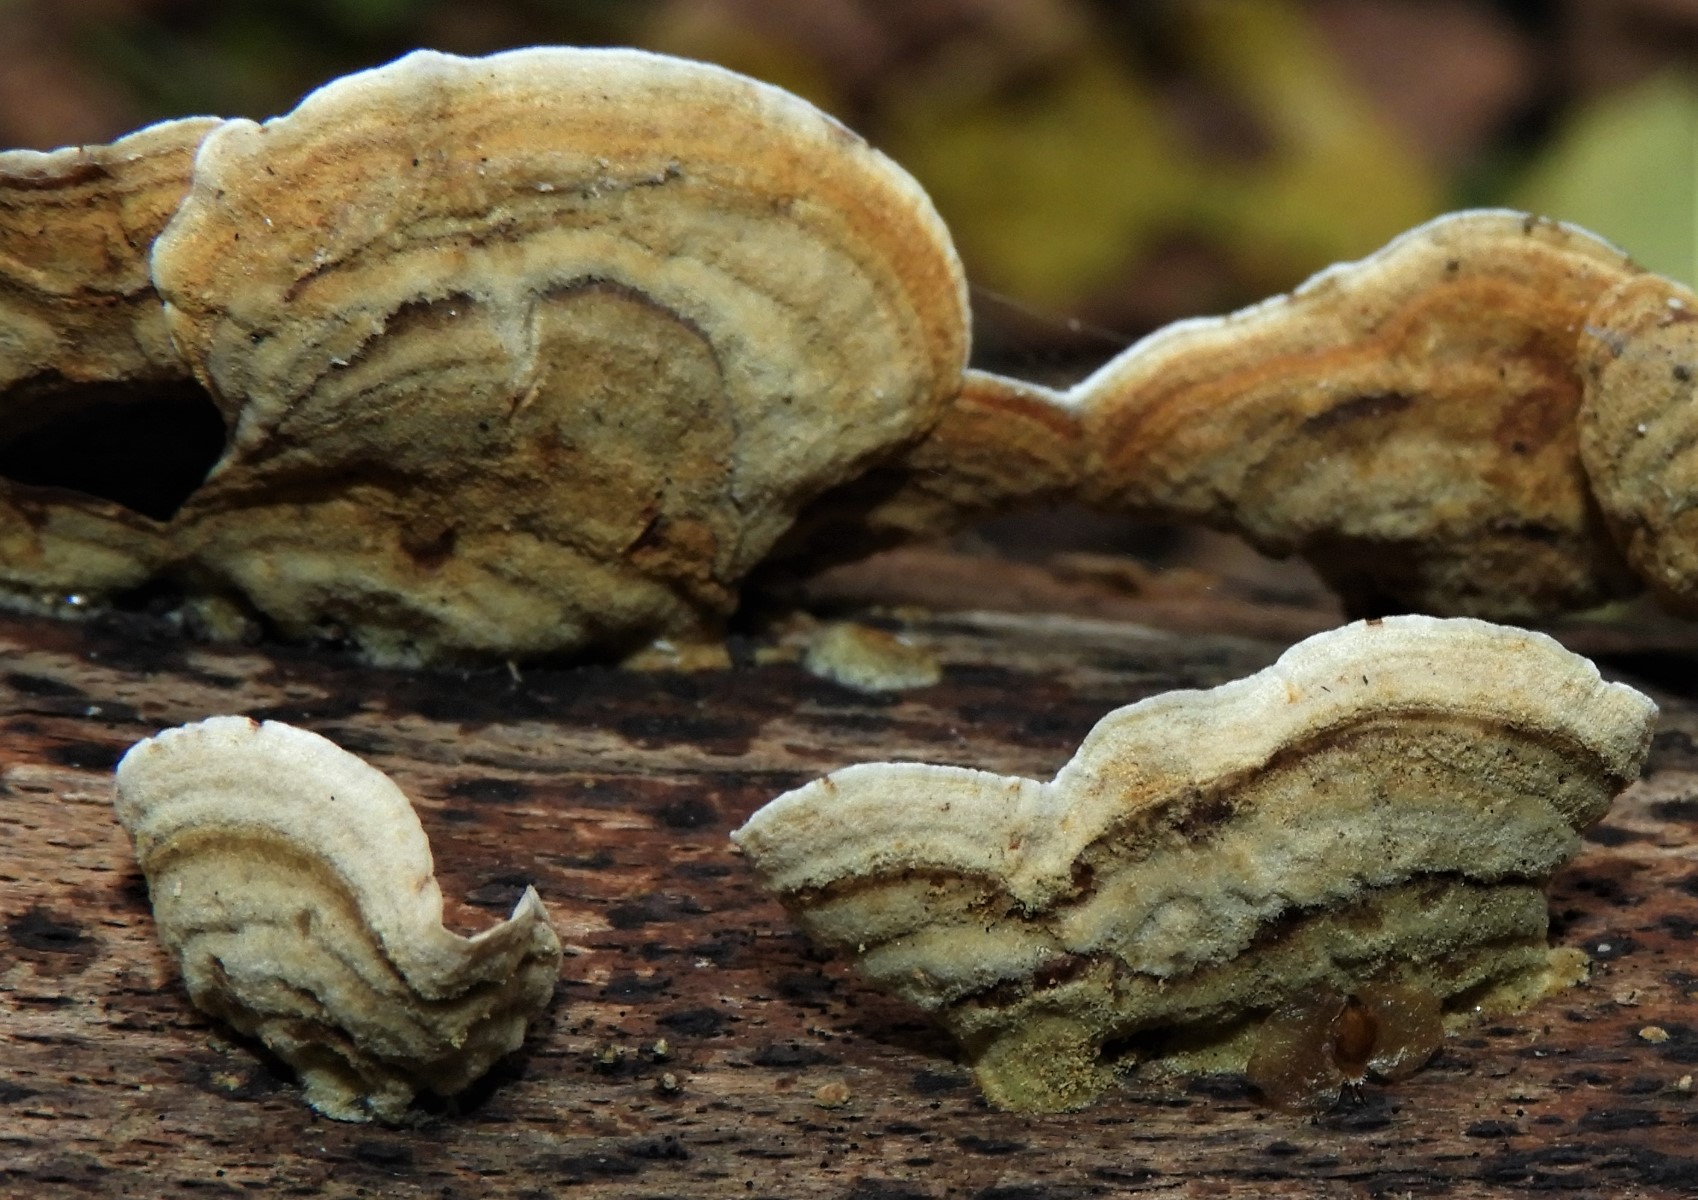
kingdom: Fungi
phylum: Basidiomycota
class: Agaricomycetes
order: Russulales
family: Stereaceae
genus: Stereum
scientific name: Stereum subtomentosum
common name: smuk lædersvamp
